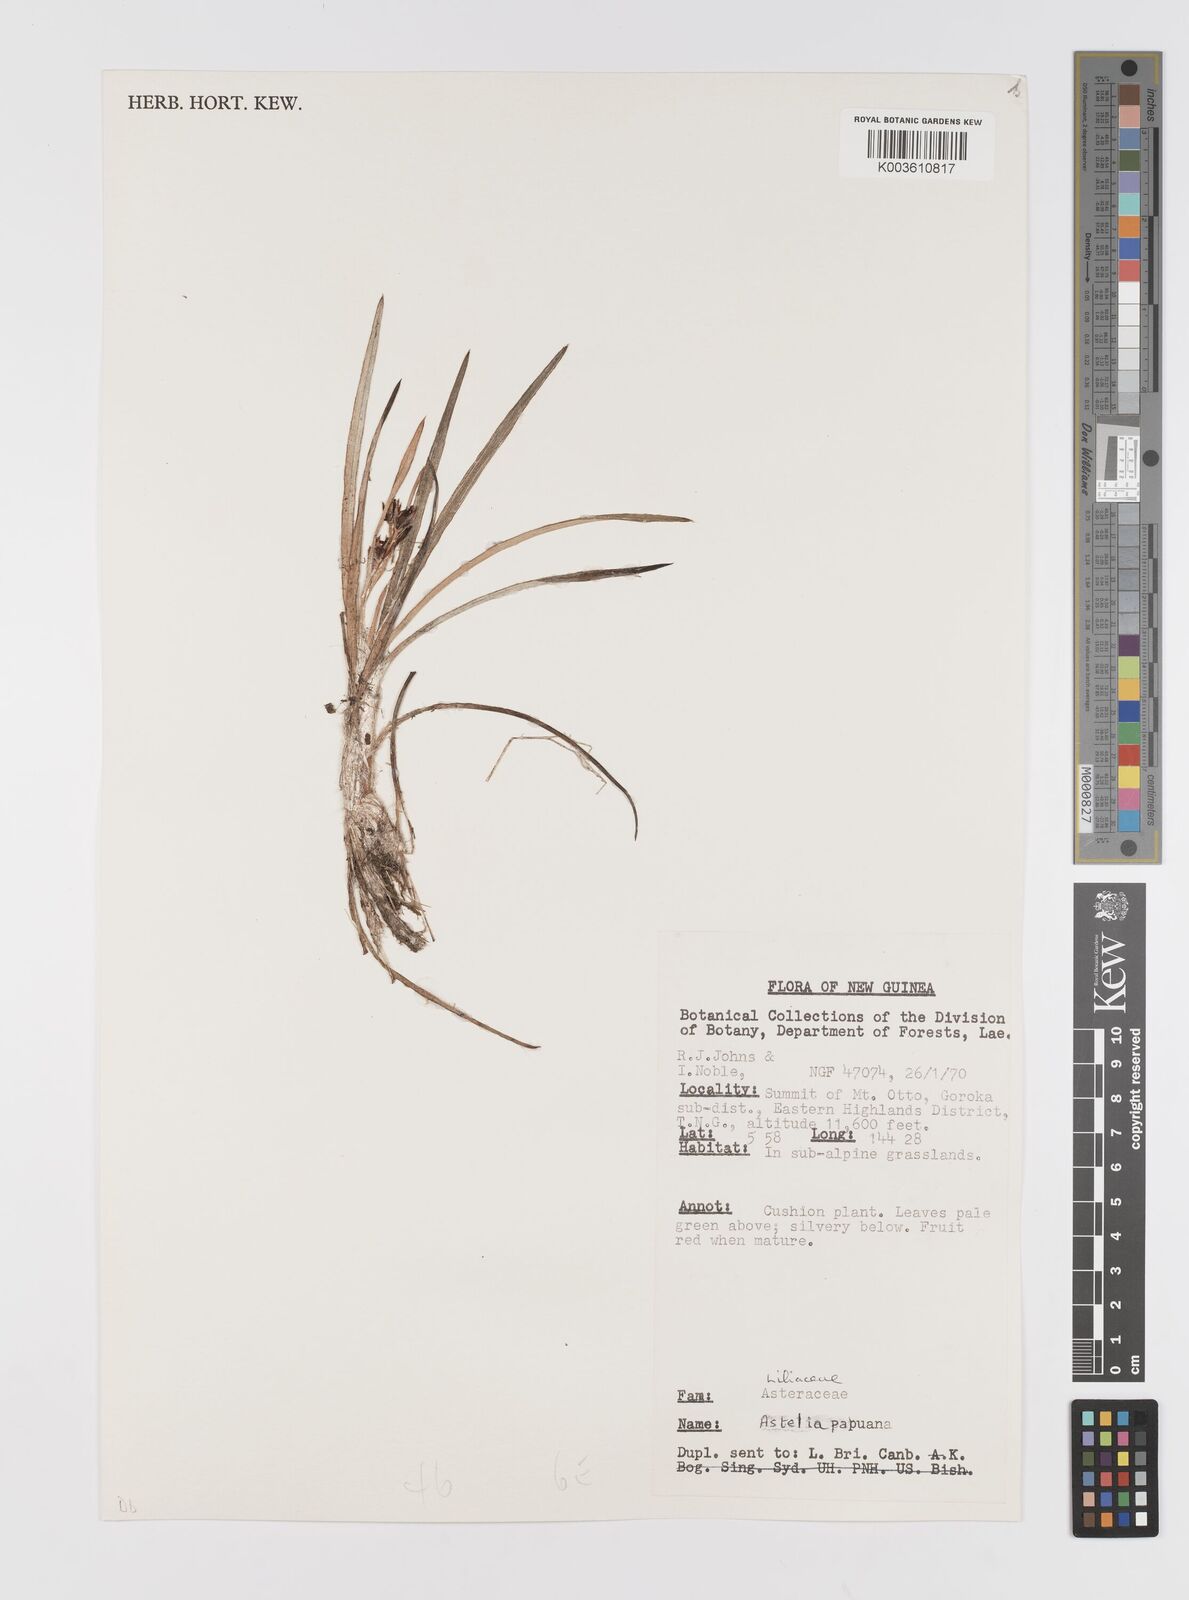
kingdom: Plantae
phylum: Tracheophyta
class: Liliopsida
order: Asparagales
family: Asteliaceae
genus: Astelia
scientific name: Astelia papuana
